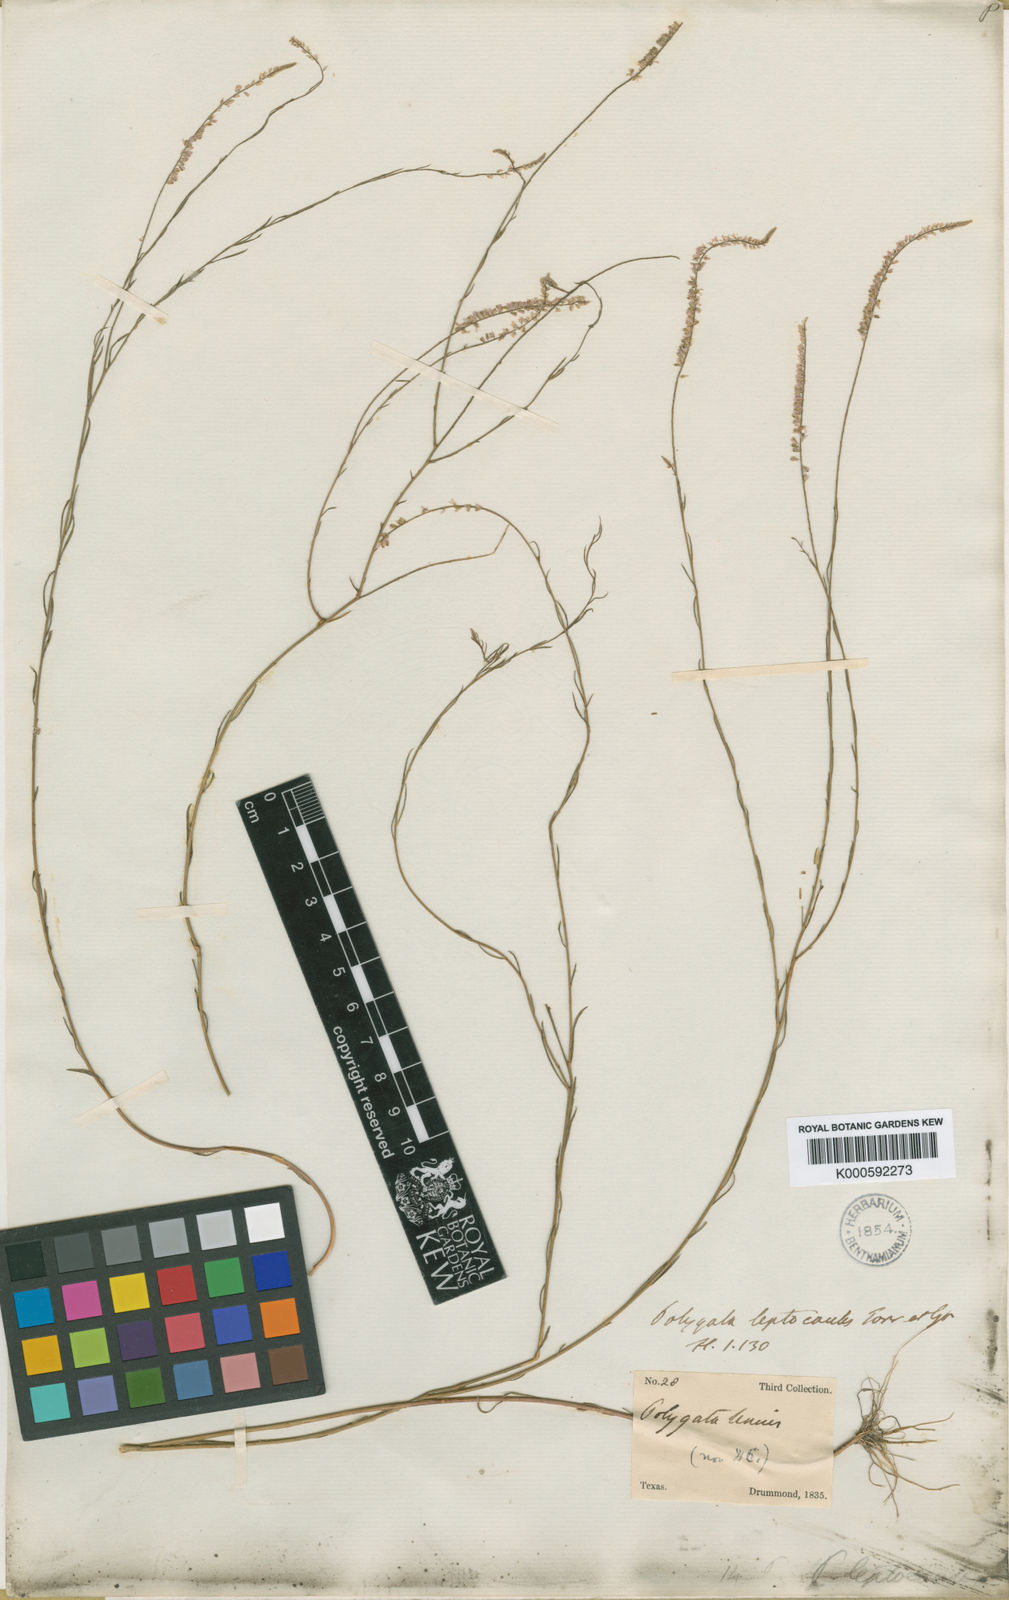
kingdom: Plantae
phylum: Tracheophyta
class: Magnoliopsida
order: Fabales
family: Polygalaceae
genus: Polygala
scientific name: Polygala tenella
